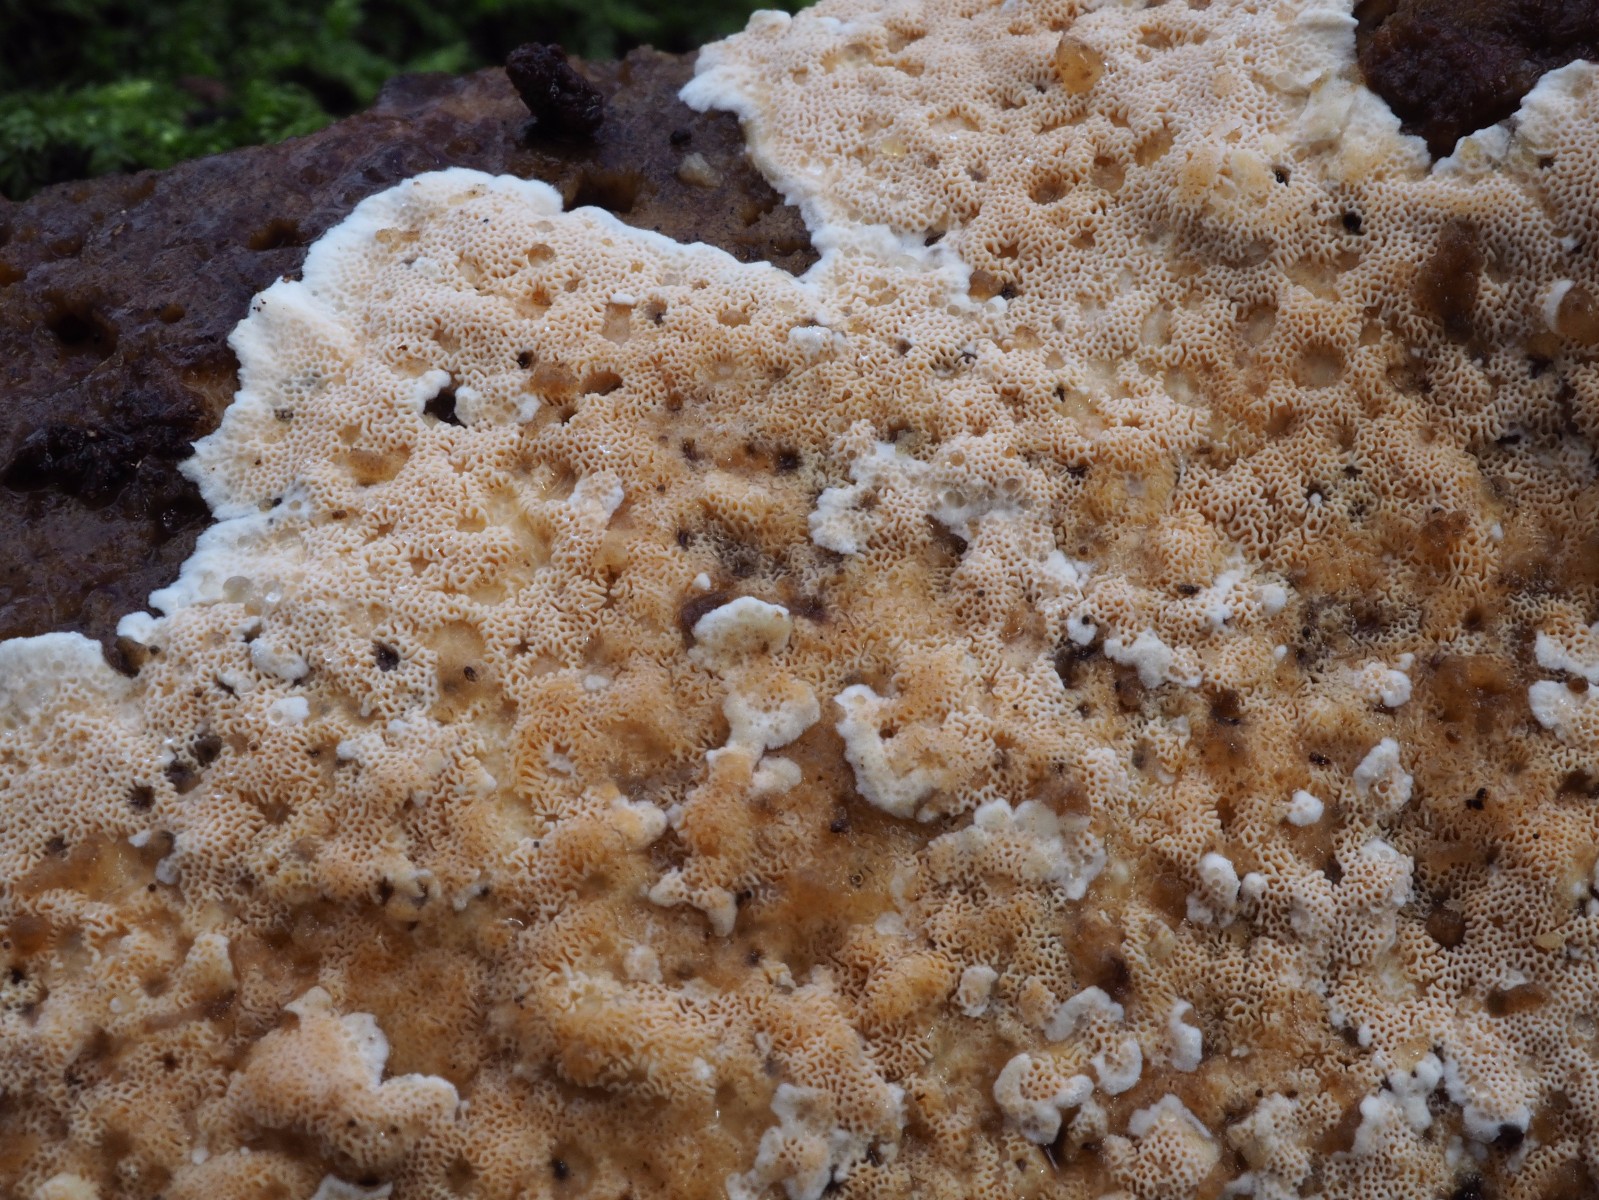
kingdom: Fungi
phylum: Basidiomycota
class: Agaricomycetes
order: Polyporales
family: Steccherinaceae
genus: Junghuhnia
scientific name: Junghuhnia nitida
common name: almindelig skønporesvamp
